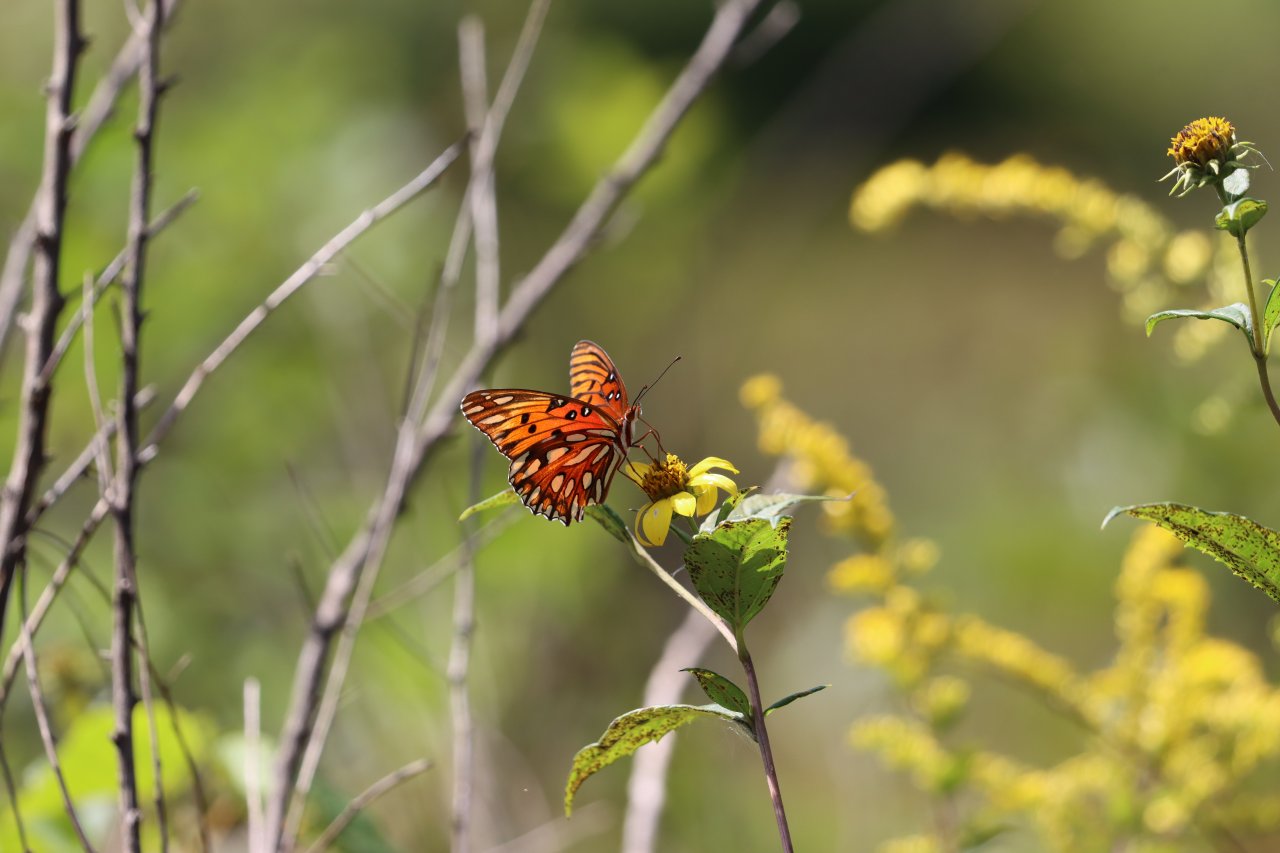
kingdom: Animalia
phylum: Arthropoda
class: Insecta
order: Lepidoptera
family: Nymphalidae
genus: Dione
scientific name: Dione vanillae
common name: Gulf Fritillary
